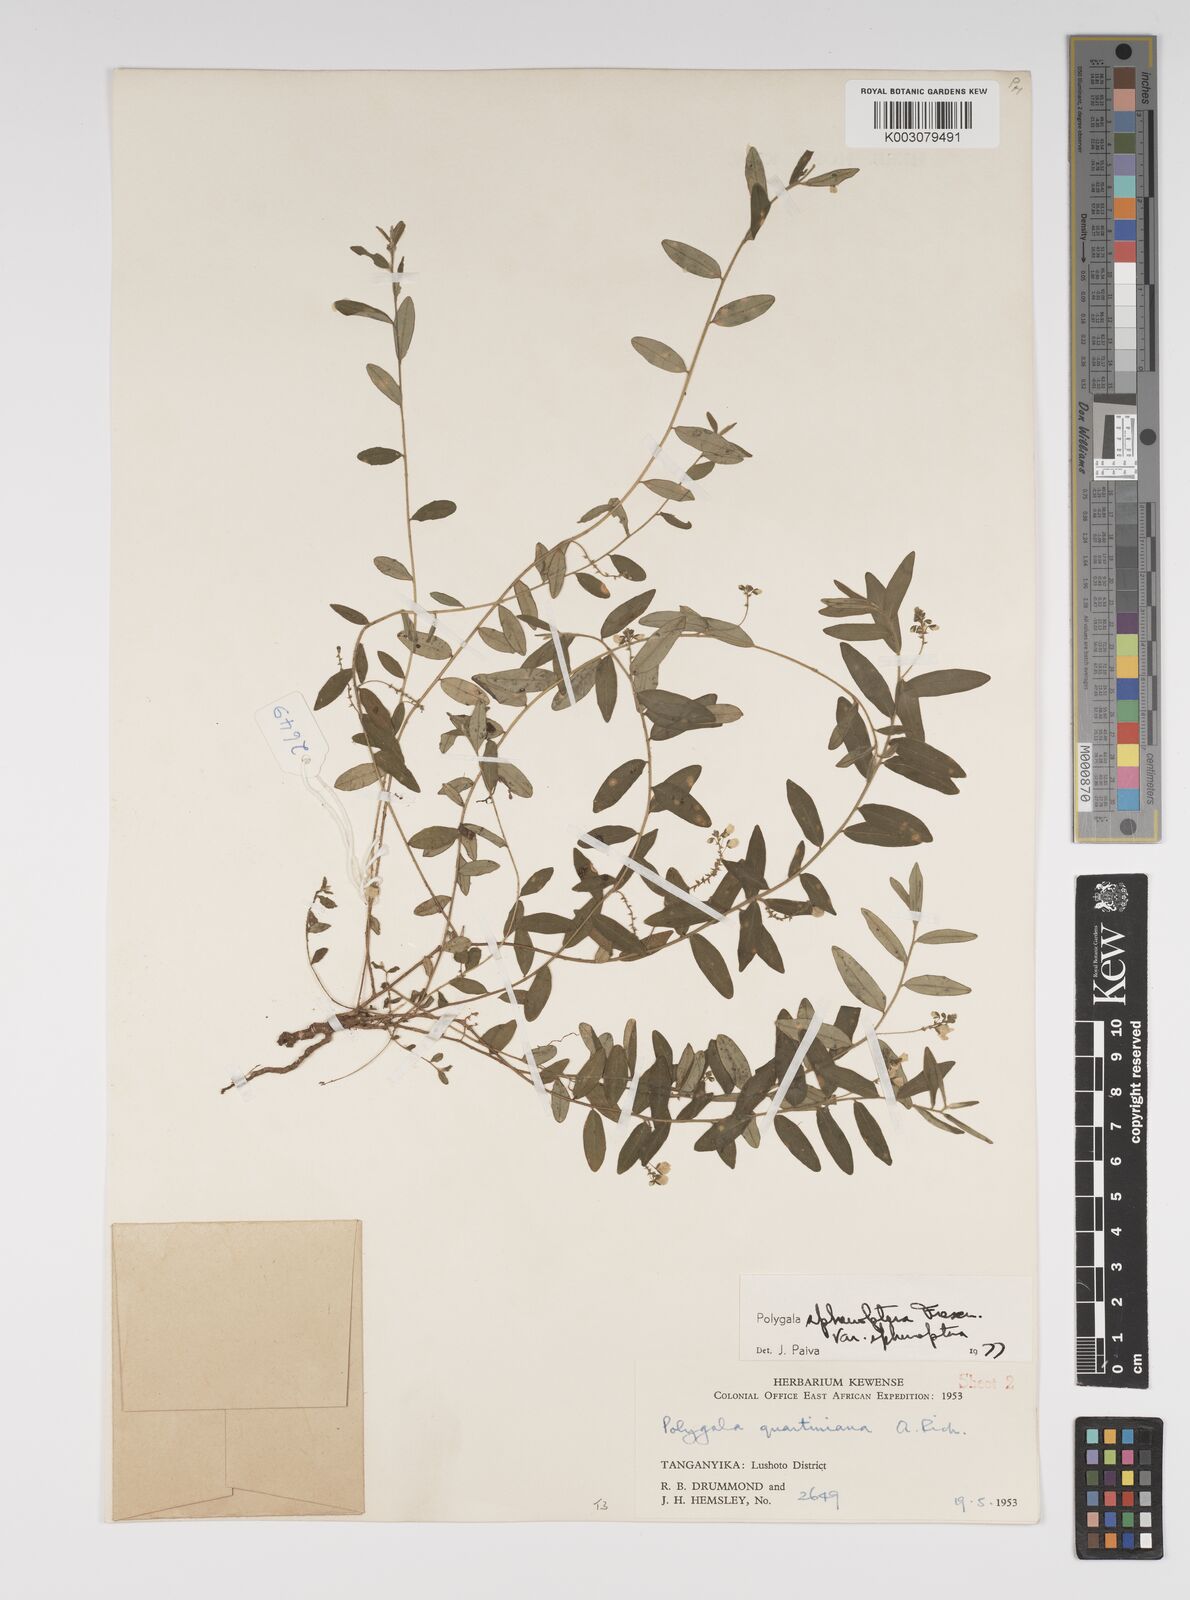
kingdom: Plantae
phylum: Tracheophyta
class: Magnoliopsida
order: Fabales
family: Polygalaceae
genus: Polygala
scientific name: Polygala sphenoptera
